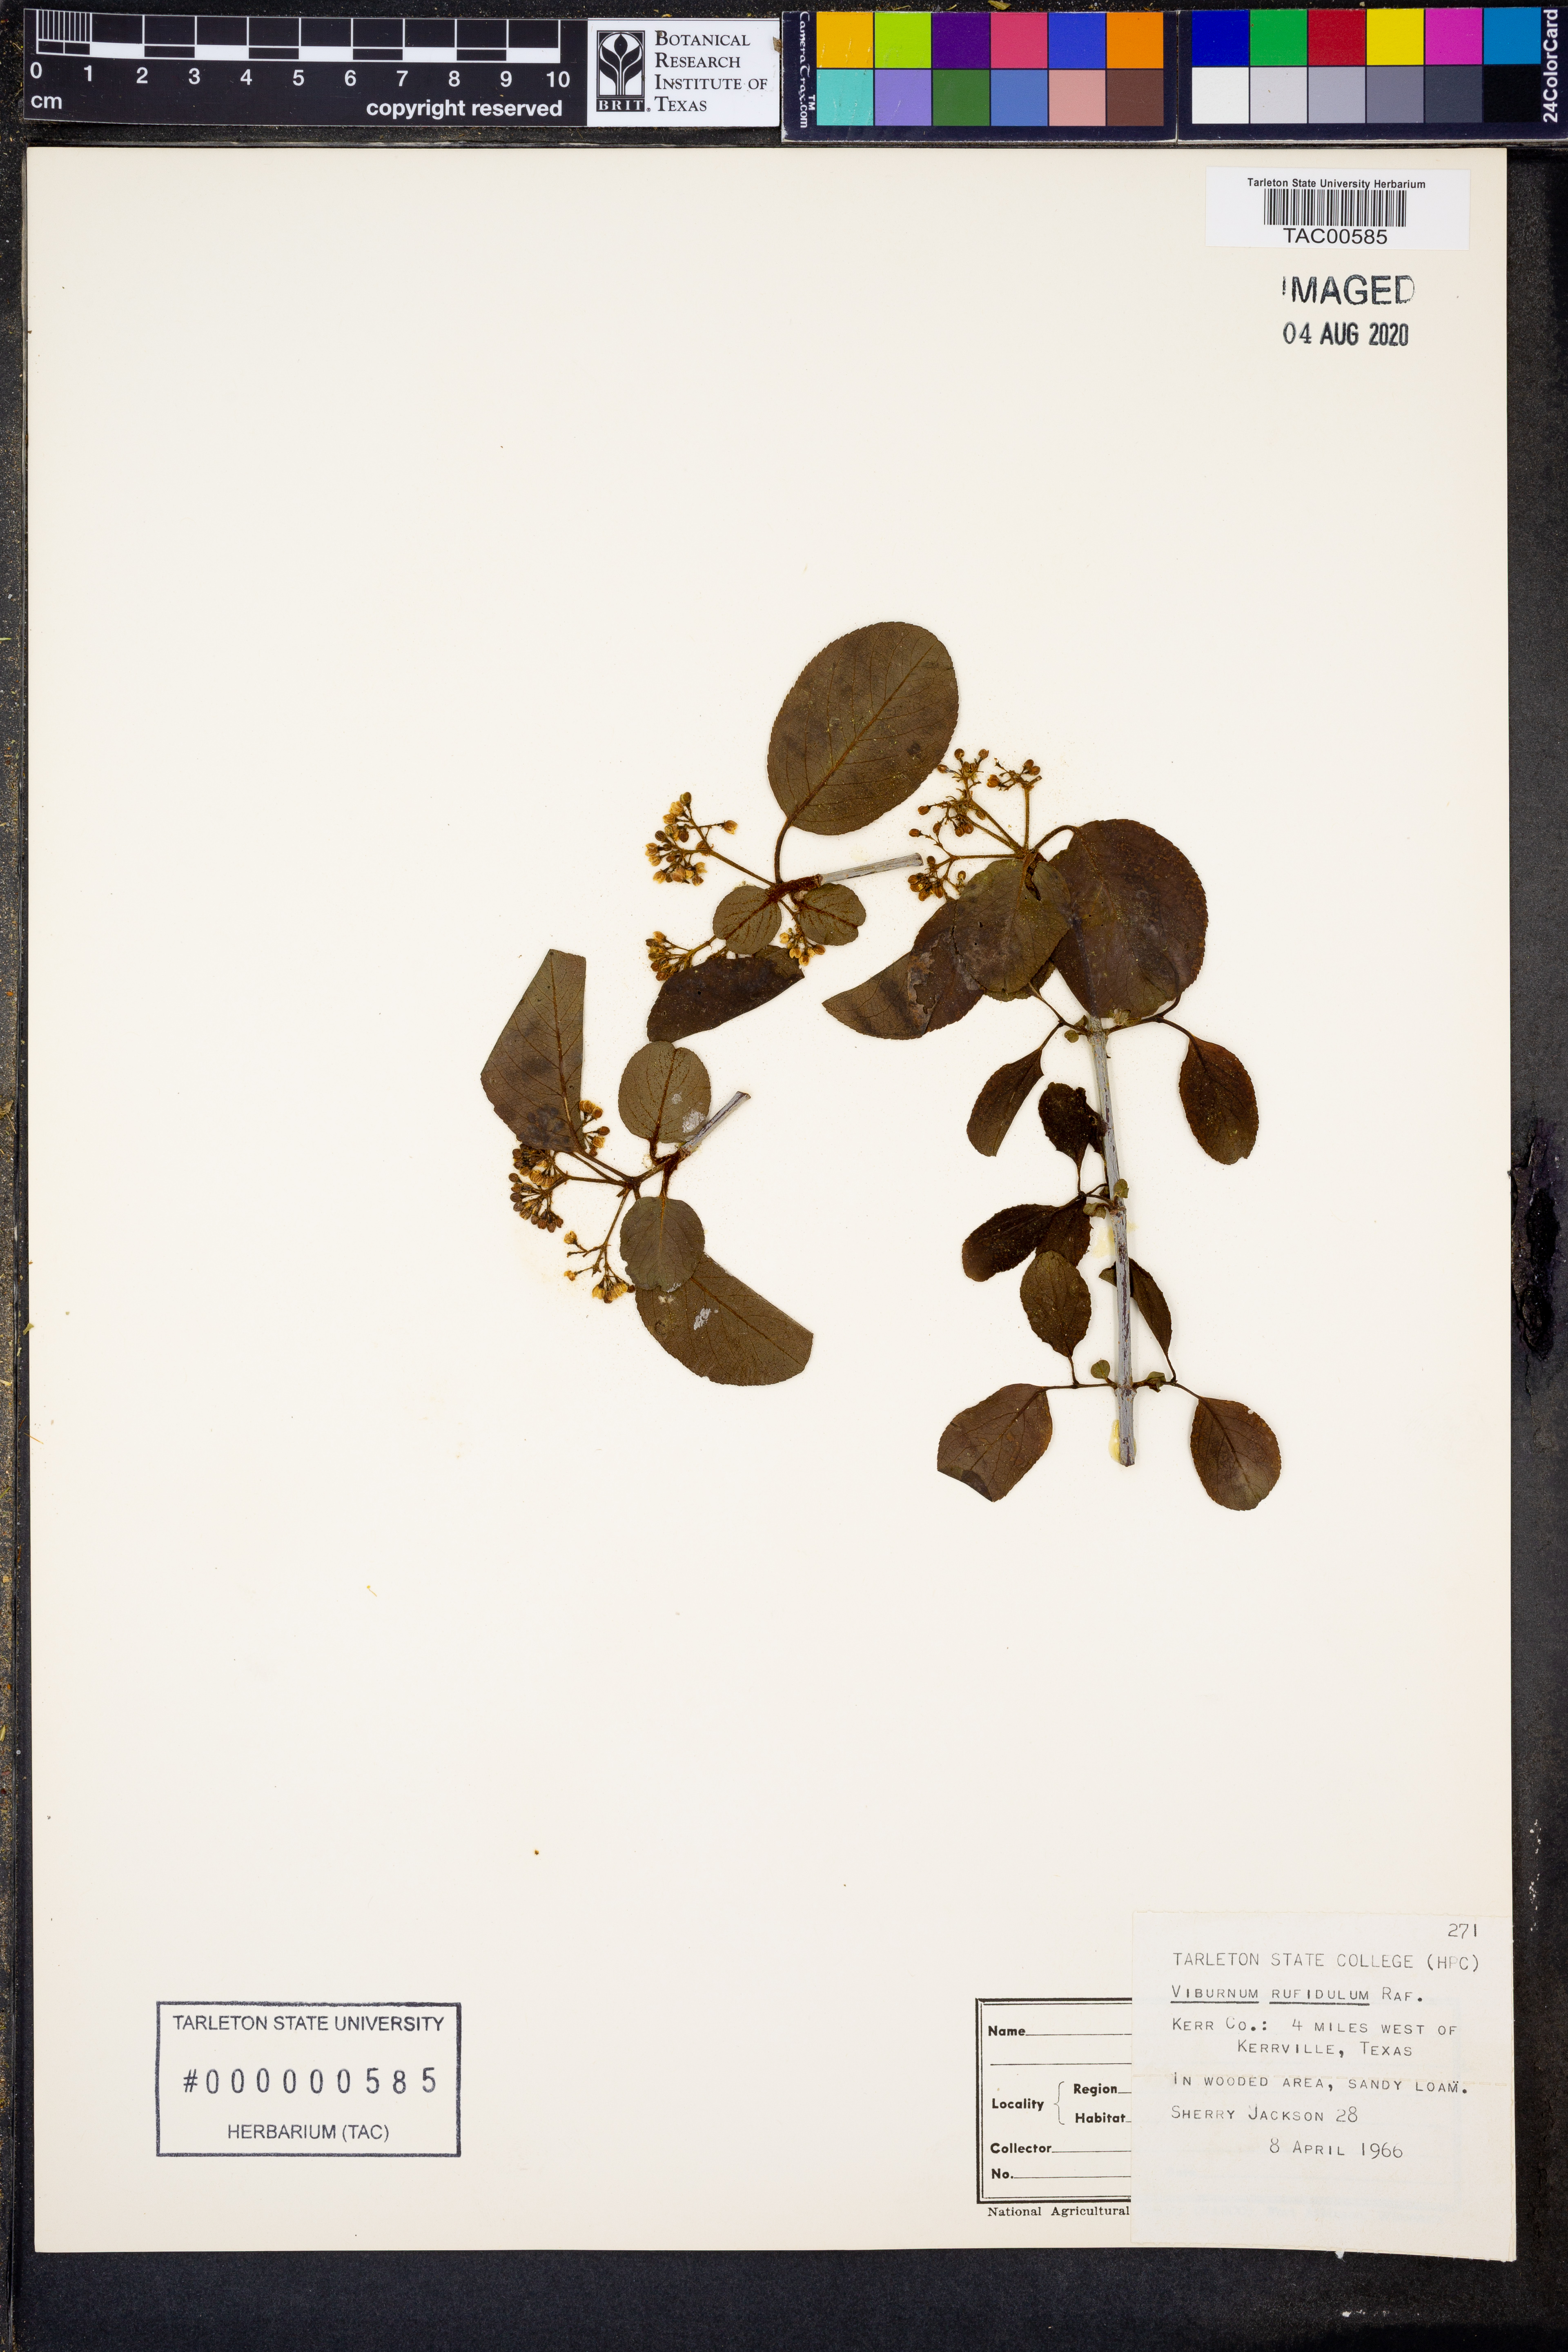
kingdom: Plantae
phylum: Tracheophyta
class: Magnoliopsida
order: Dipsacales
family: Viburnaceae
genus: Viburnum
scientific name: Viburnum rufidulum
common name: Blue haw
